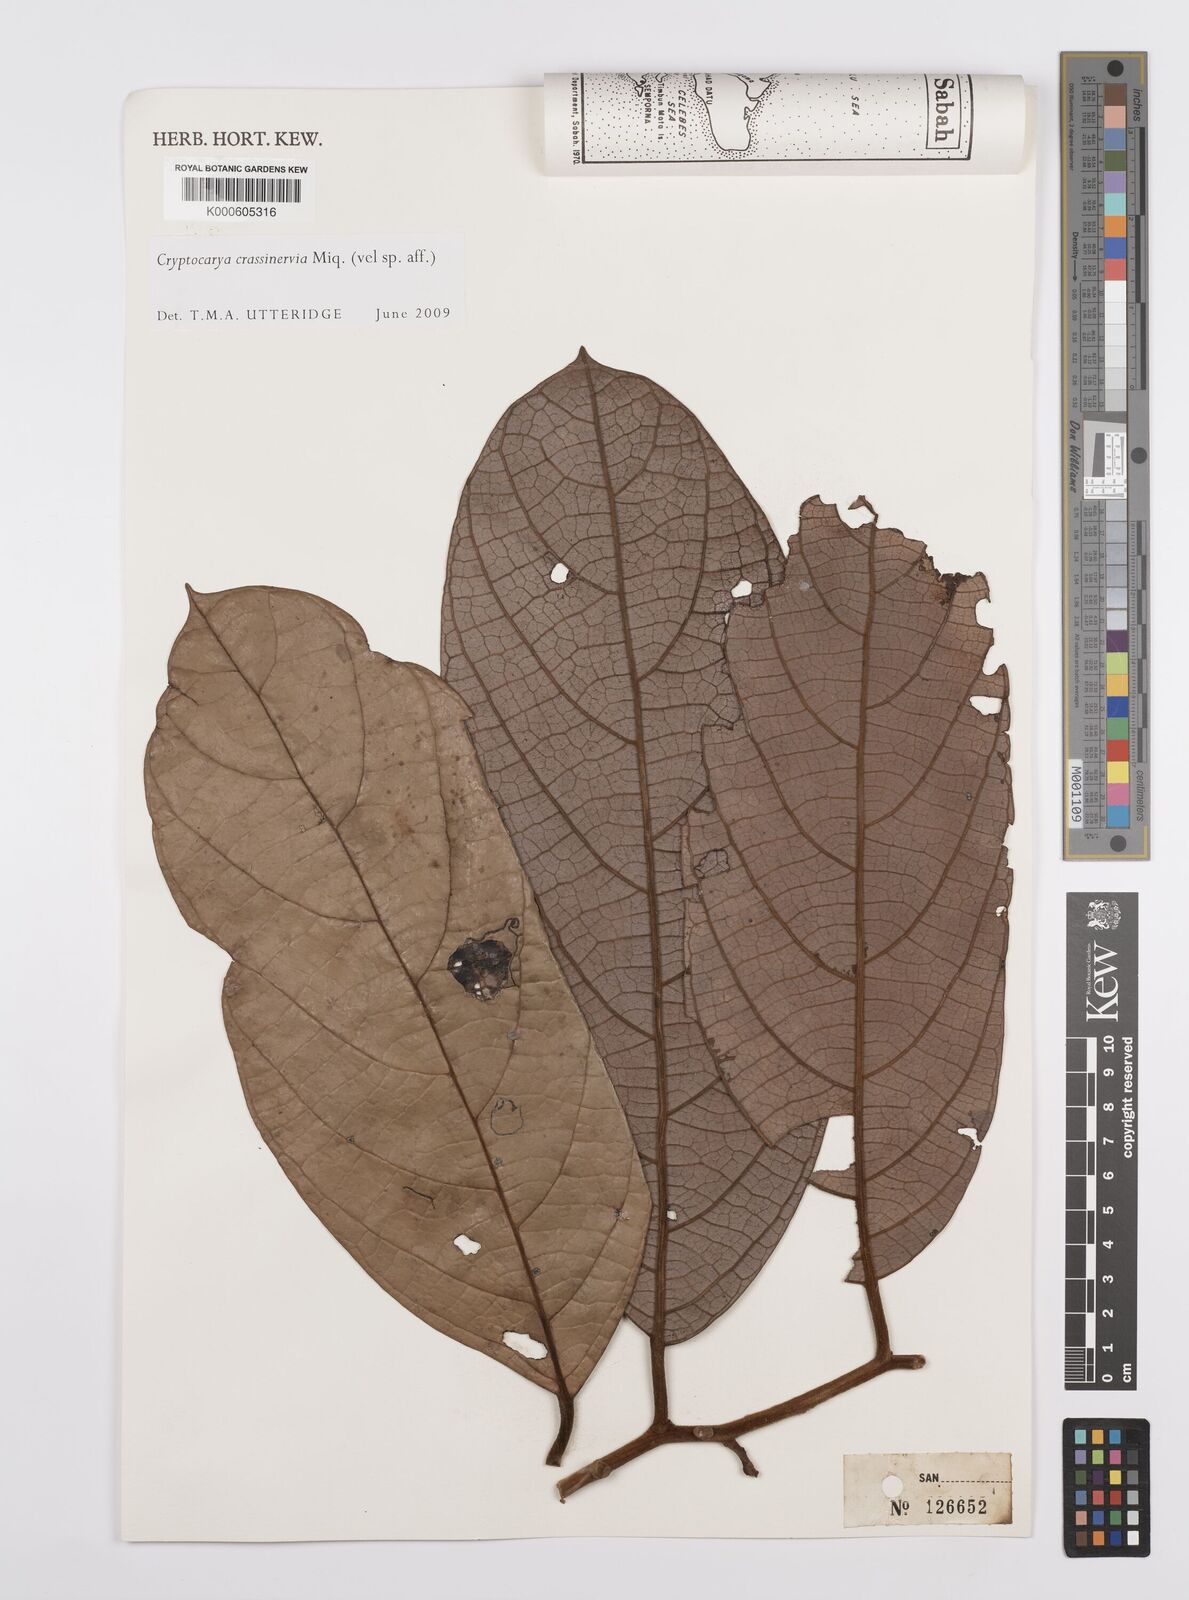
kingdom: Plantae
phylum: Tracheophyta
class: Magnoliopsida
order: Laurales
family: Lauraceae
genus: Cryptocarya
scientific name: Cryptocarya diversifolia
